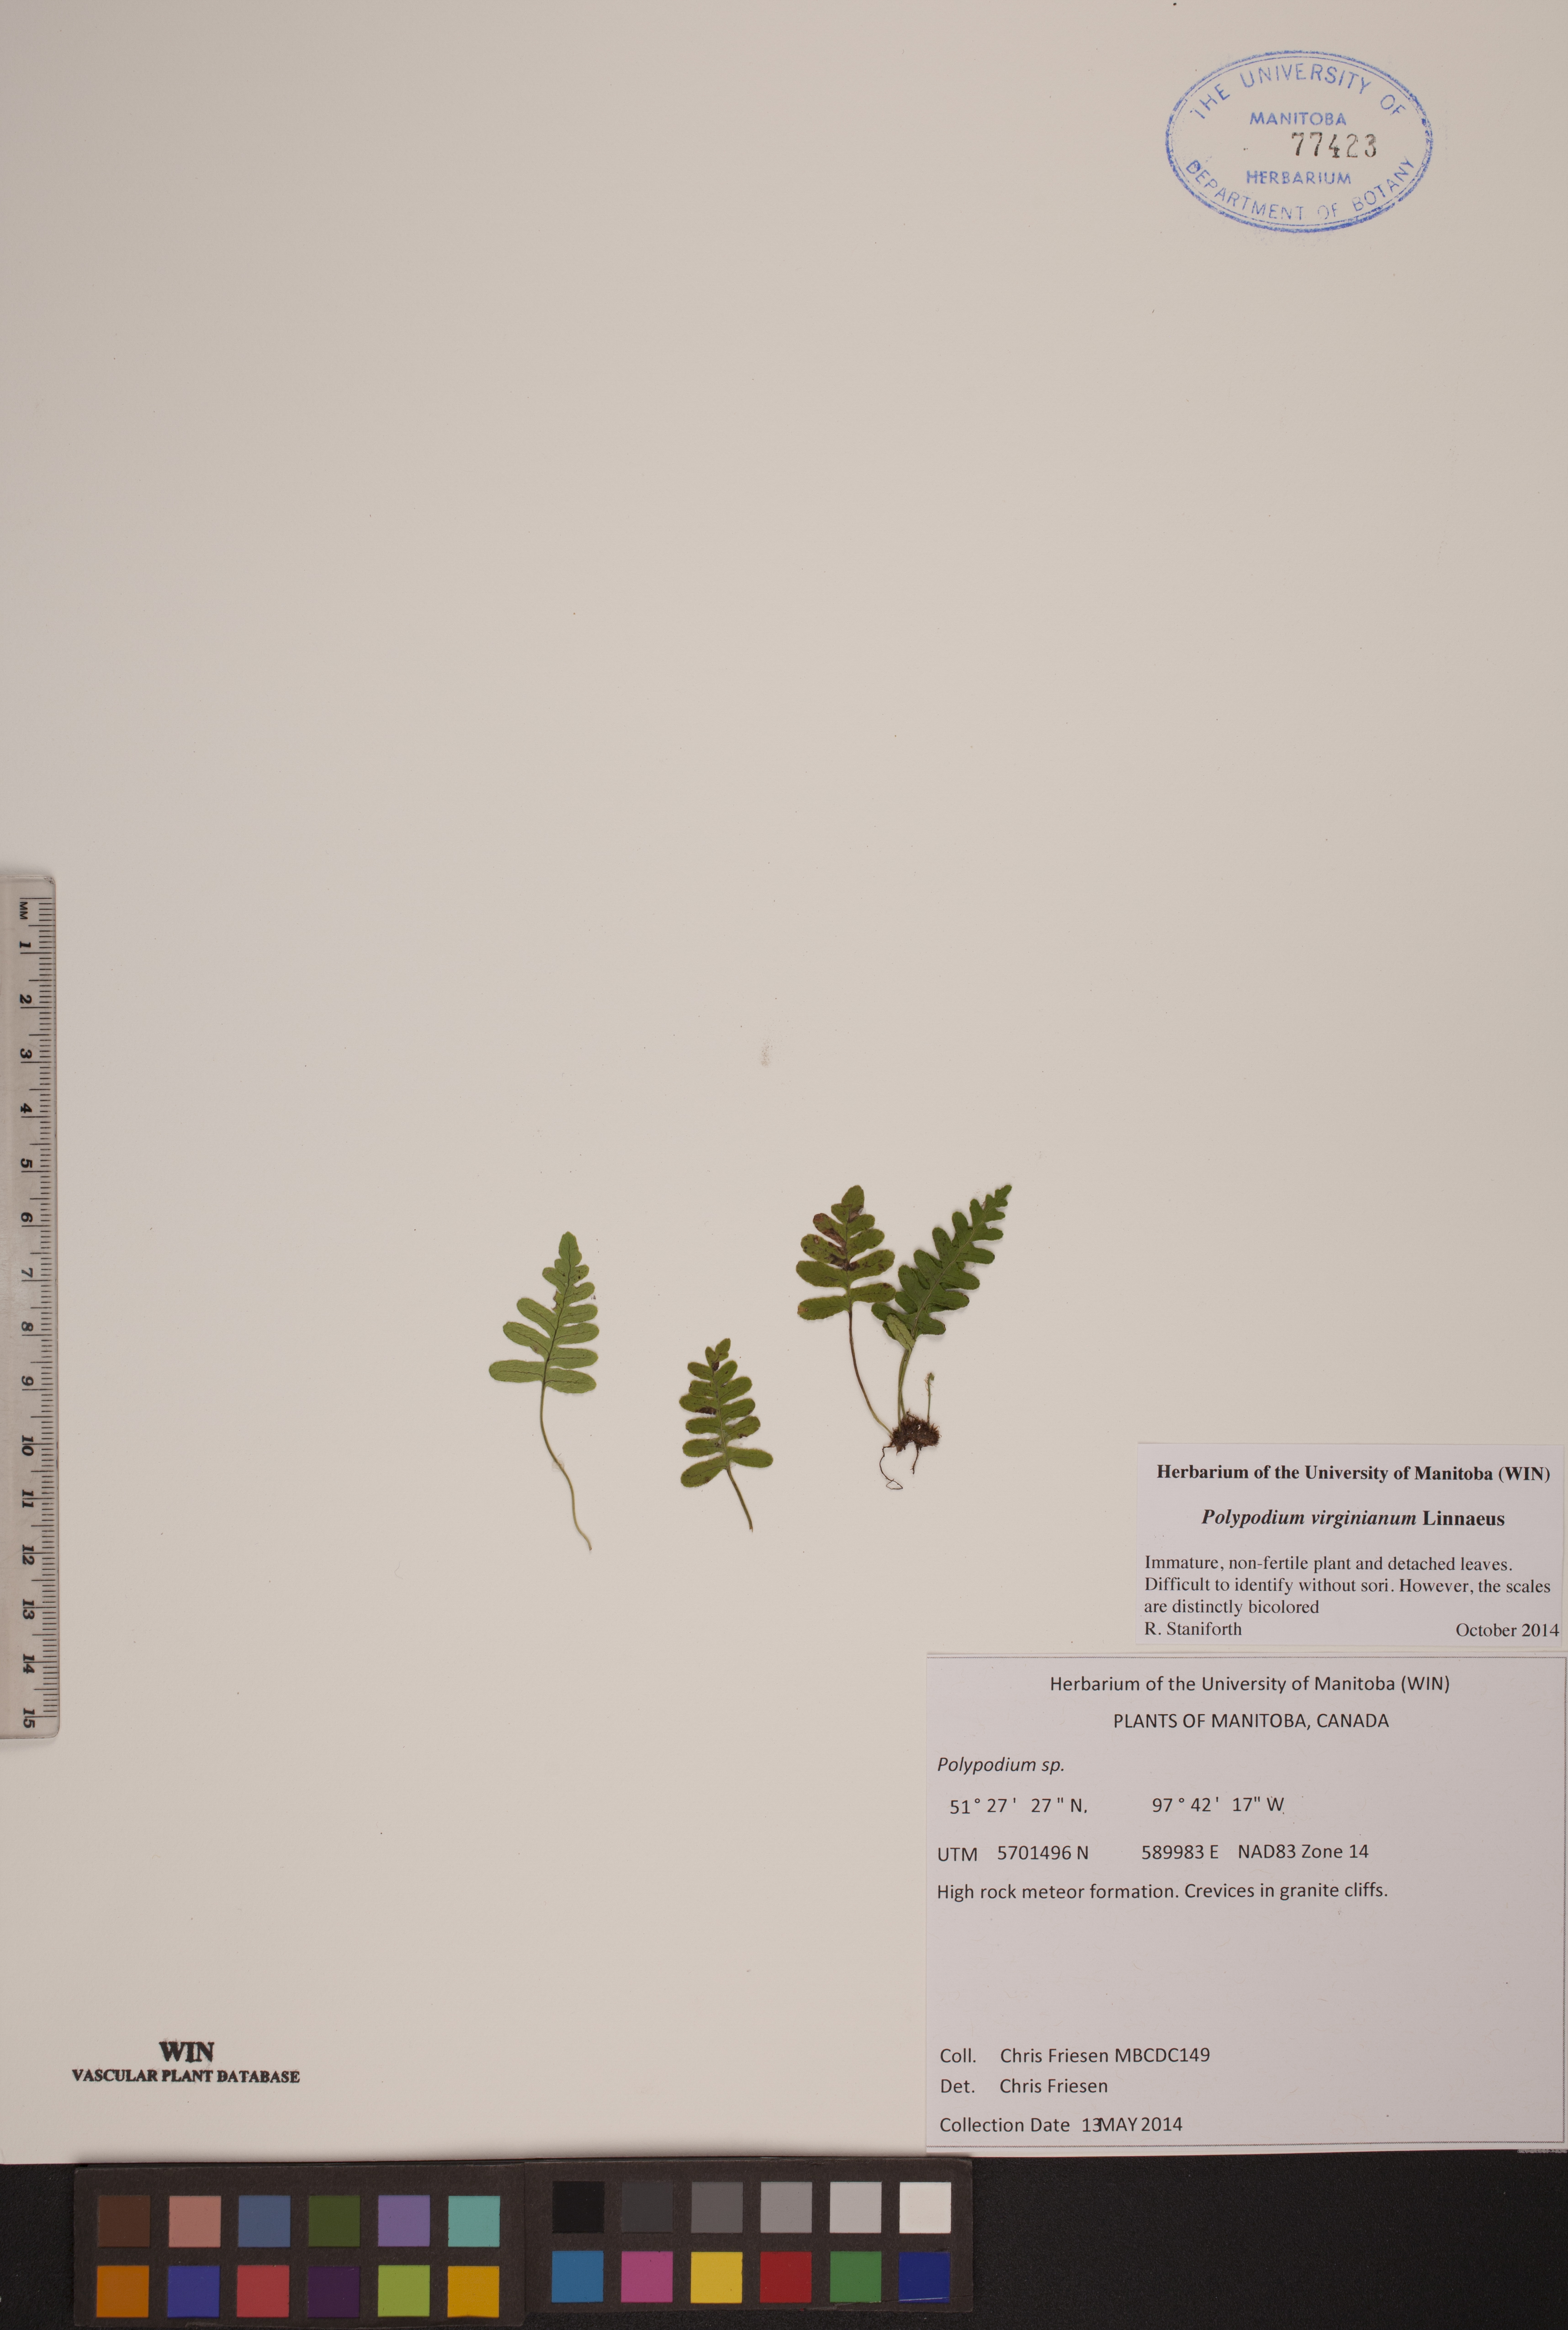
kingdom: Plantae
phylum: Tracheophyta
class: Polypodiopsida
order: Polypodiales
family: Polypodiaceae
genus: Polypodium
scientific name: Polypodium virginianum
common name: American wall fern
